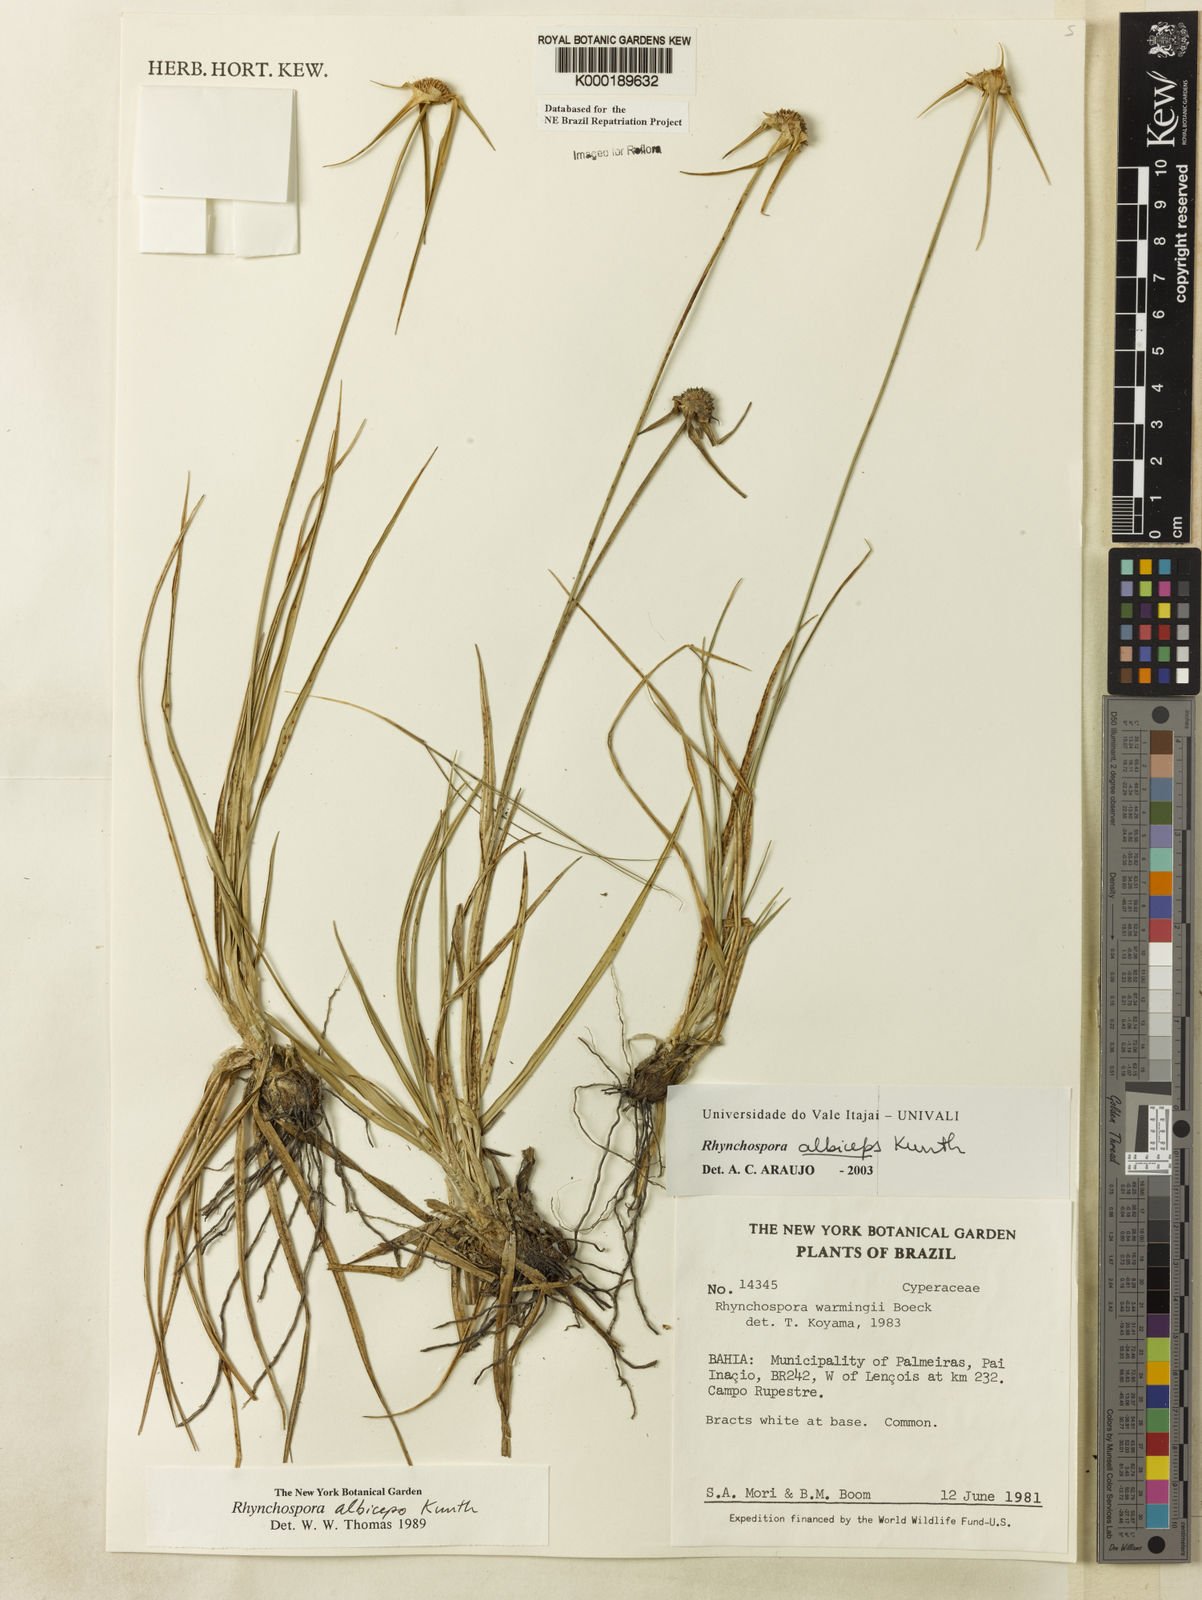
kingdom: Plantae
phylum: Tracheophyta
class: Liliopsida
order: Poales
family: Cyperaceae
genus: Rhynchospora
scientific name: Rhynchospora albiceps
